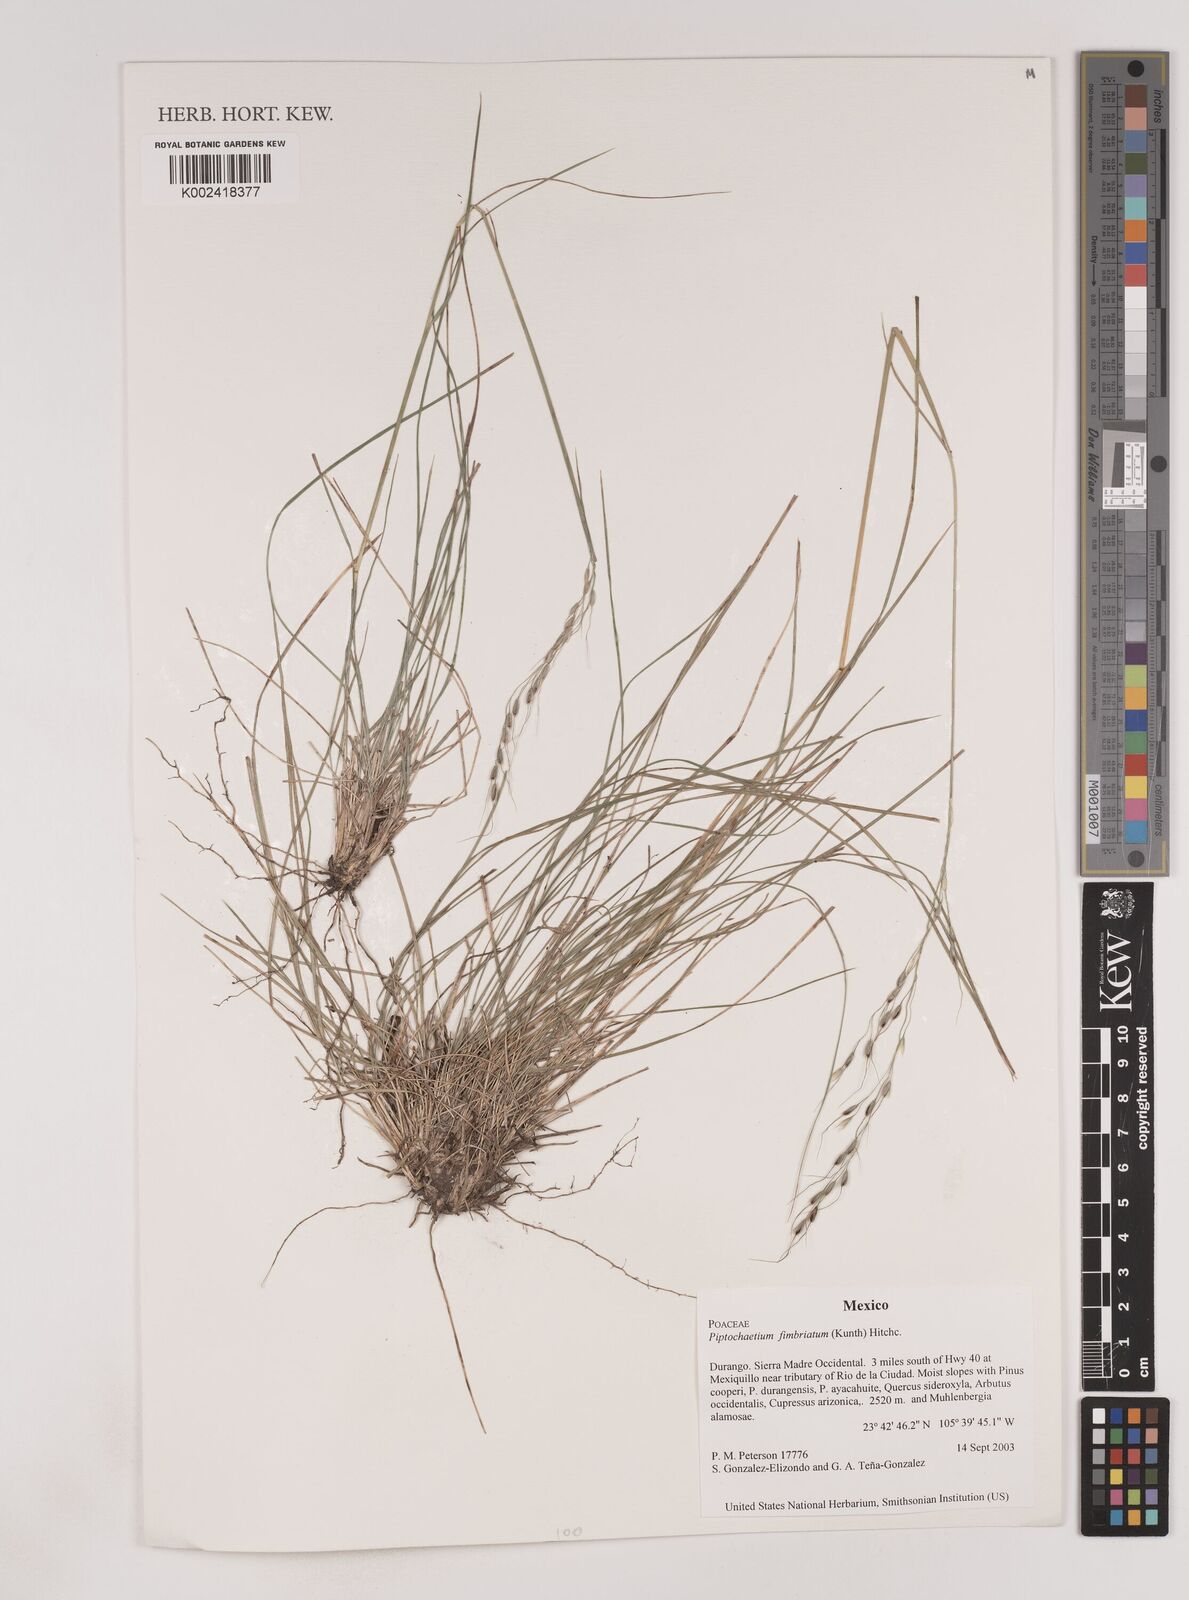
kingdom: Plantae
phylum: Tracheophyta
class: Liliopsida
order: Poales
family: Poaceae
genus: Piptochaetium
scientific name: Piptochaetium fimbriatum
